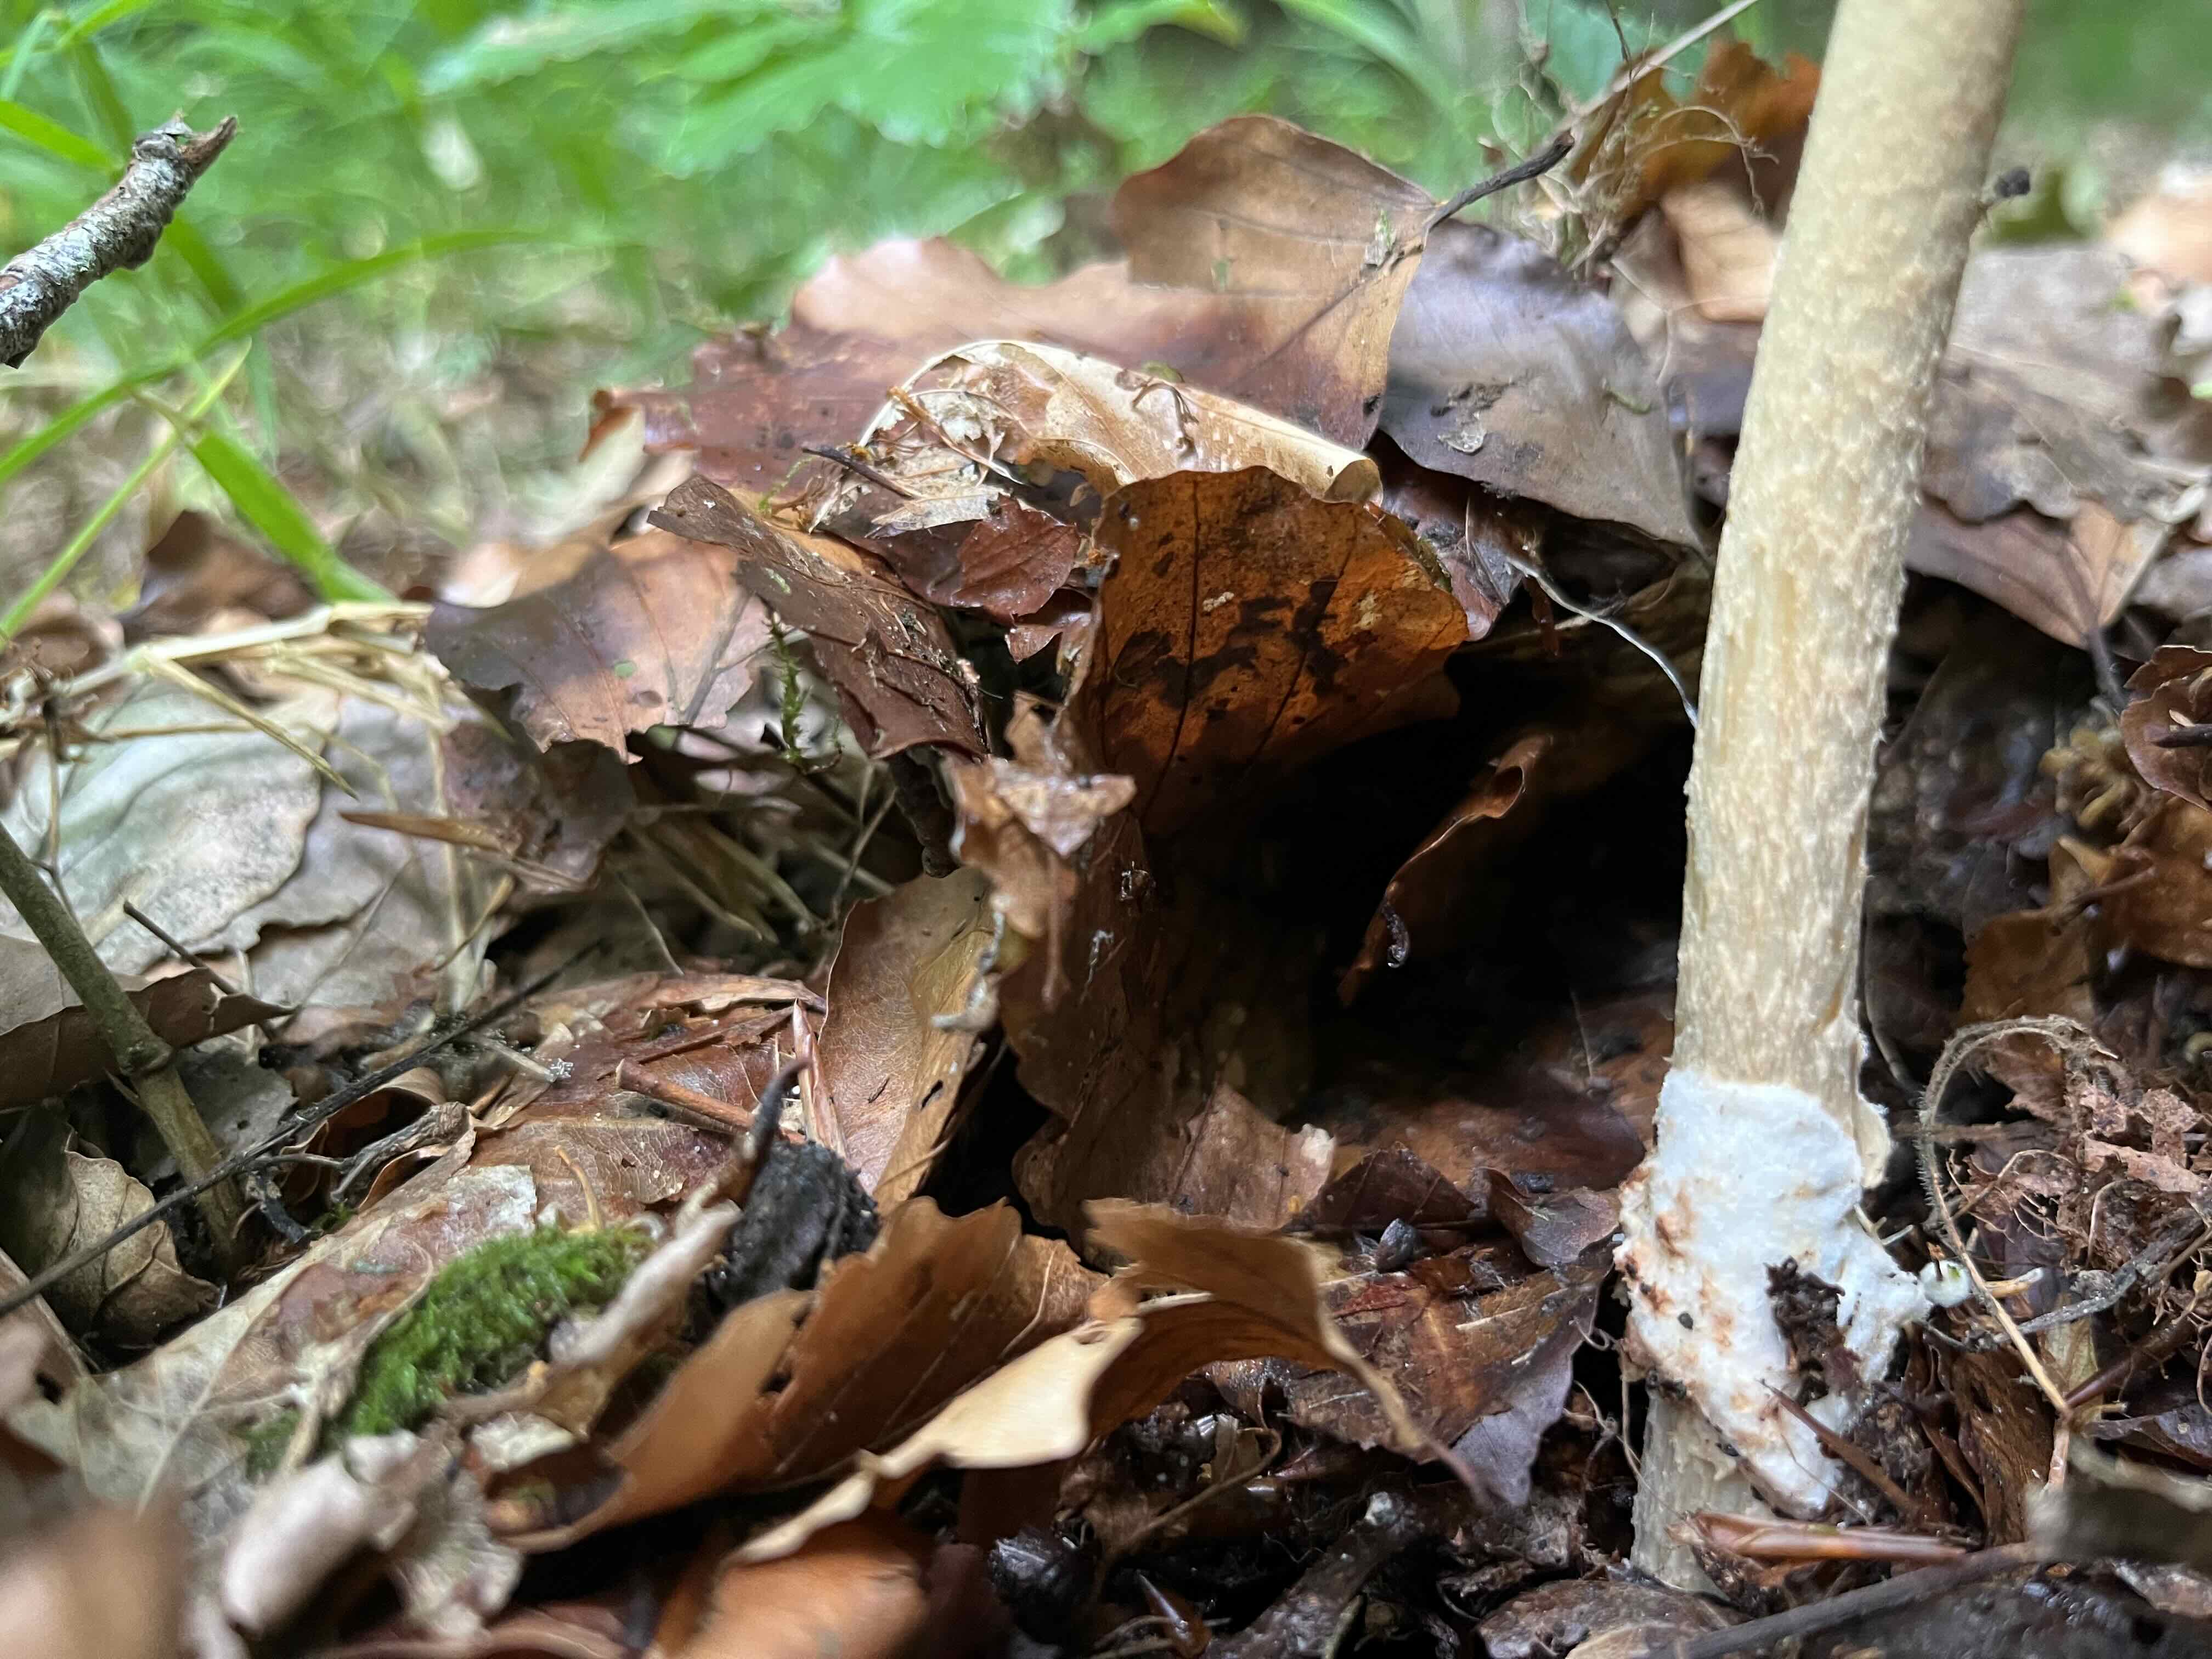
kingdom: Fungi
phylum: Basidiomycota
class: Agaricomycetes
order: Agaricales
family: Amanitaceae
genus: Amanita
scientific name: Amanita fulva
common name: brun kam-fluesvamp
